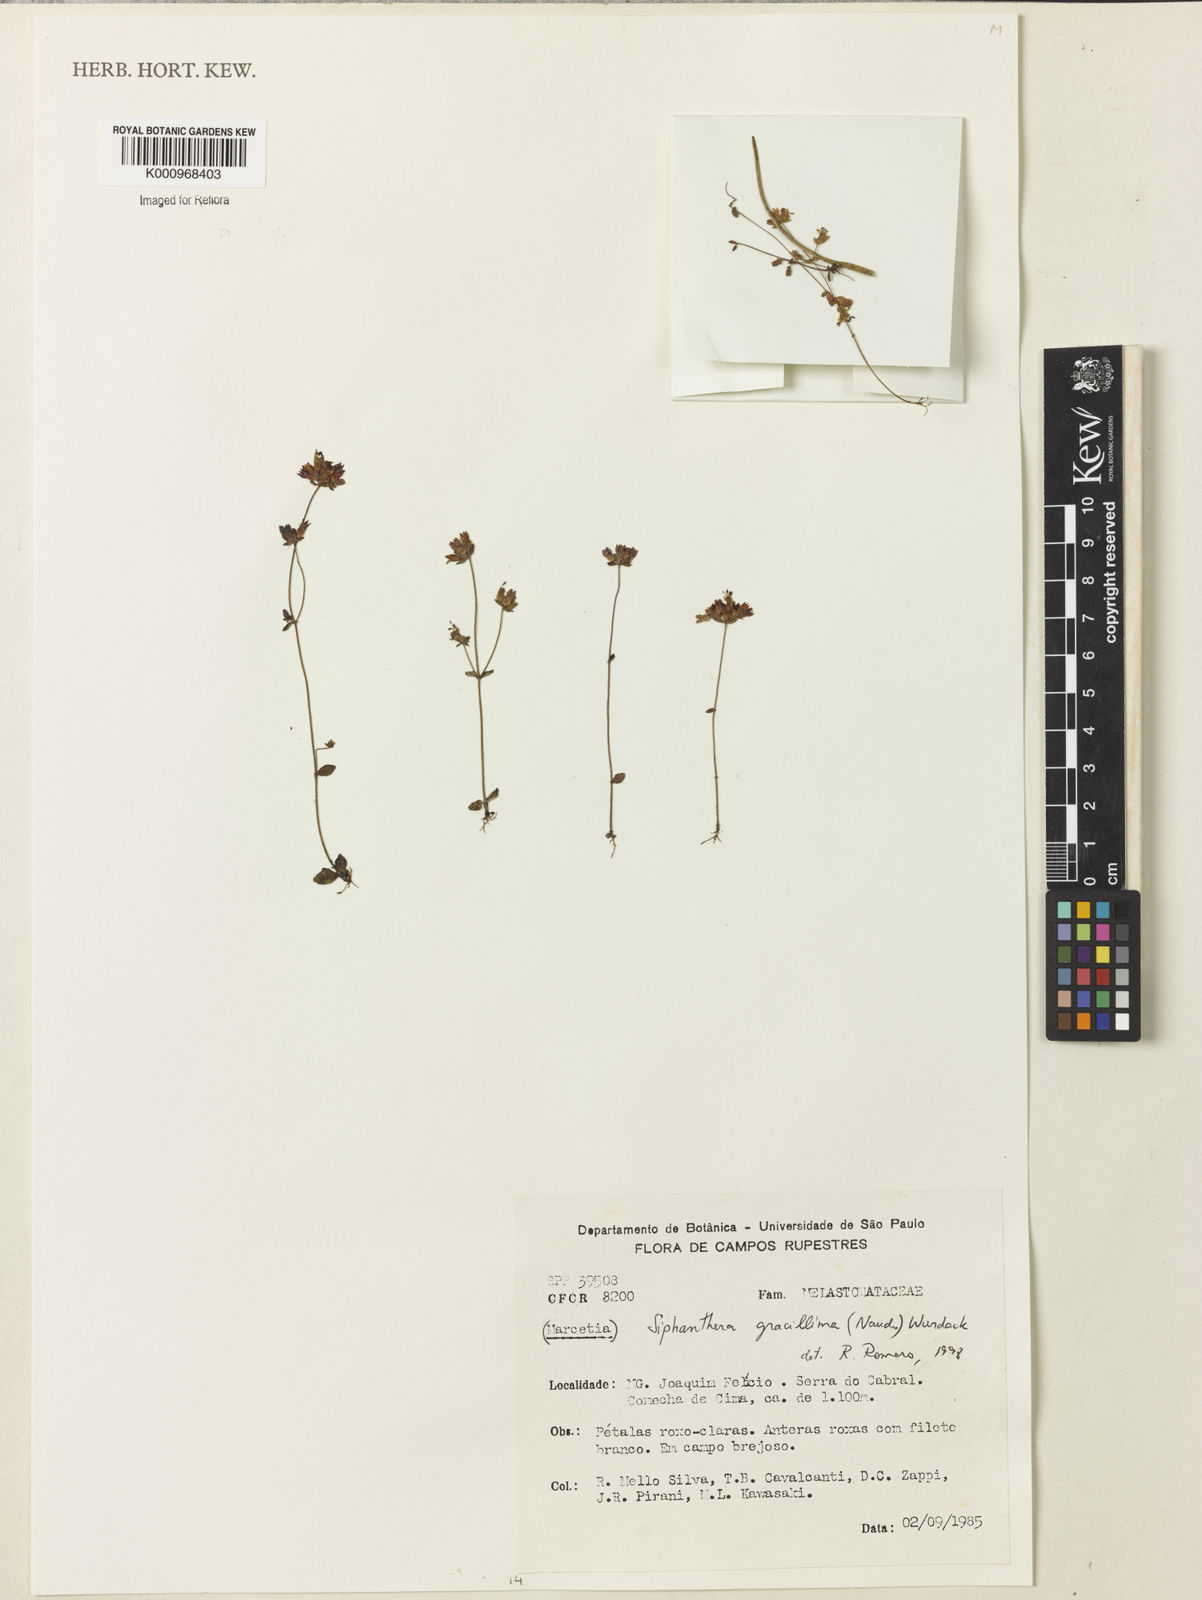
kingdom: Plantae
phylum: Tracheophyta
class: Magnoliopsida
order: Myrtales
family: Melastomataceae
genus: Siphanthera
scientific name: Siphanthera gracillima
